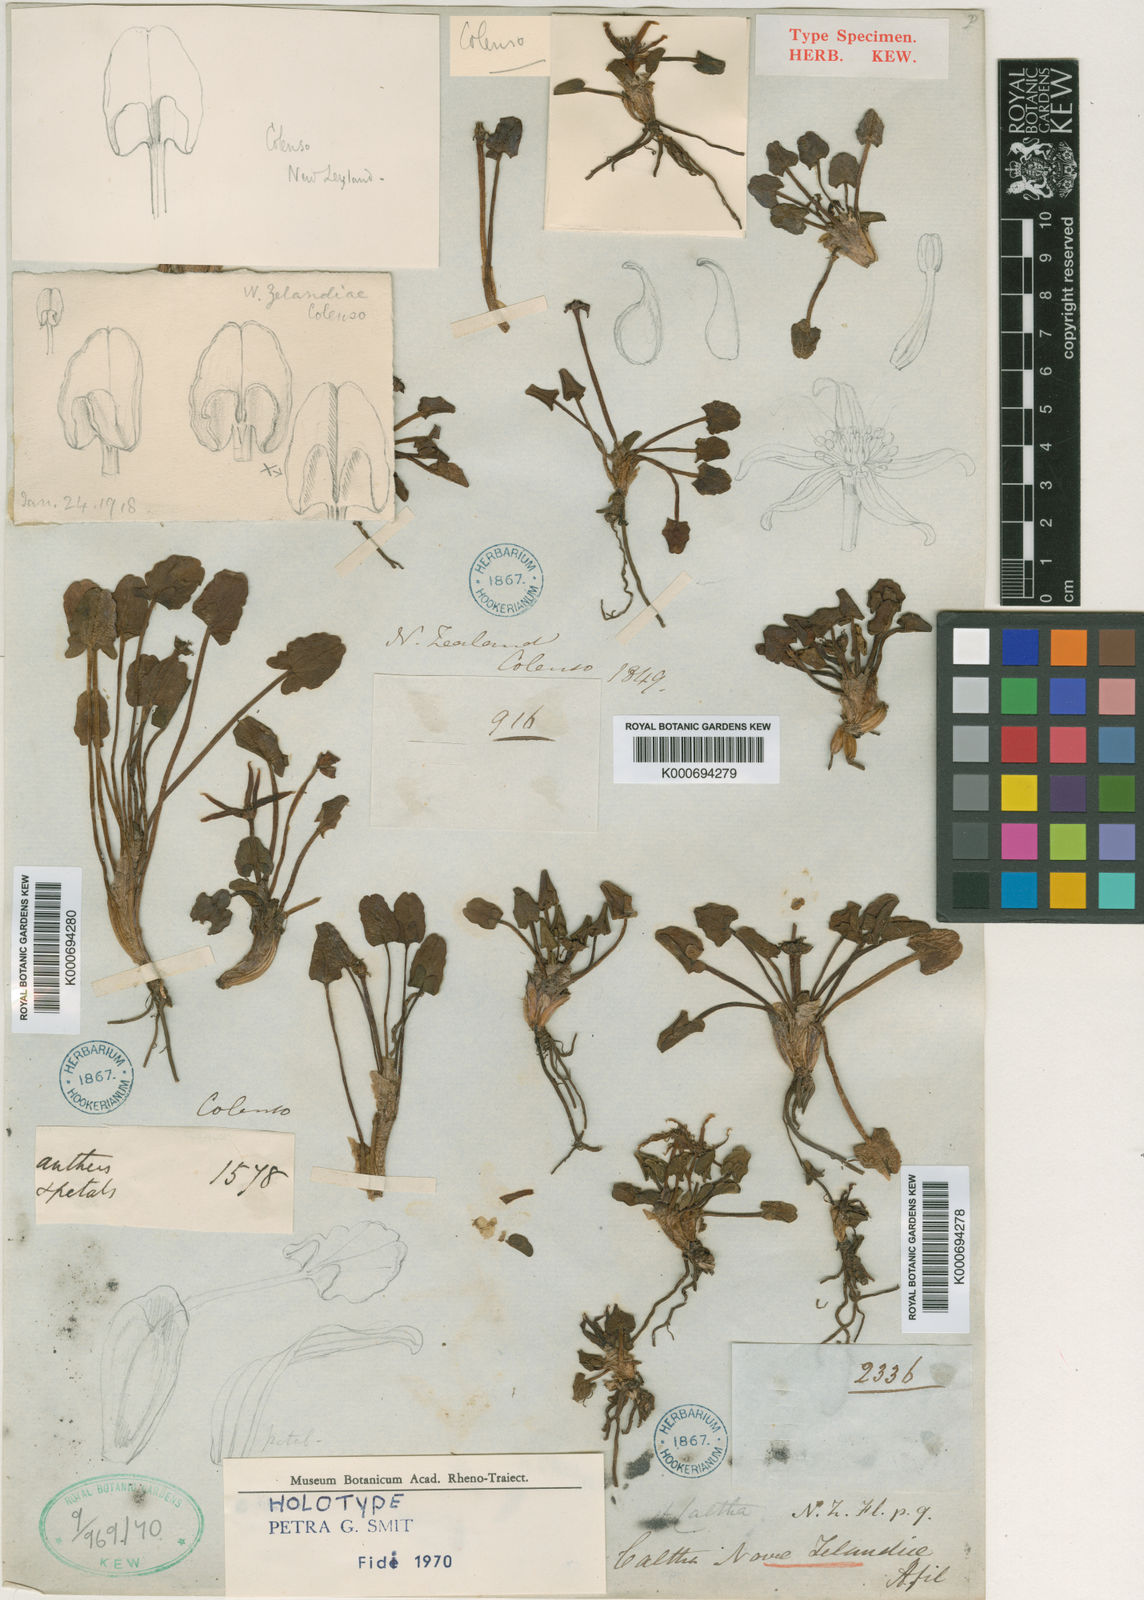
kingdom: Plantae
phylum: Tracheophyta
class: Magnoliopsida
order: Ranunculales
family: Ranunculaceae
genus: Caltha
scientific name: Caltha novae-zelandiae
